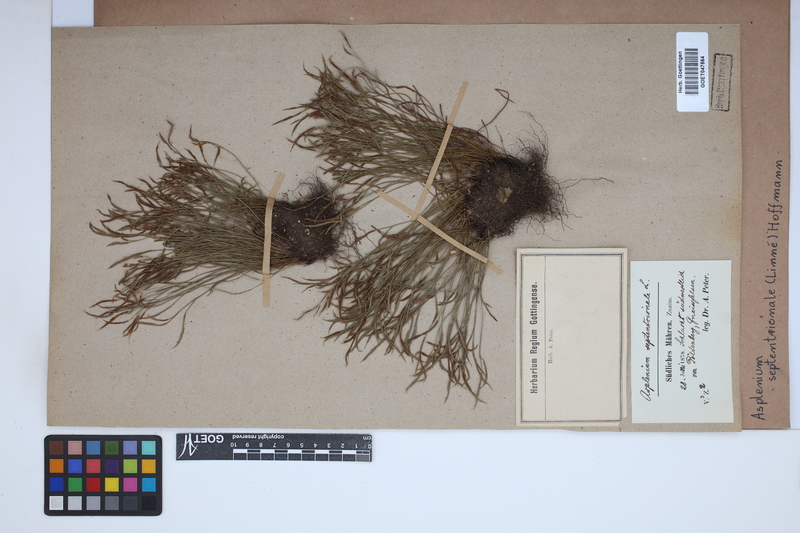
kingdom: Plantae
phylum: Tracheophyta
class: Polypodiopsida
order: Polypodiales
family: Aspleniaceae
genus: Asplenium
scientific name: Asplenium septentrionale
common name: Forked spleenwort
